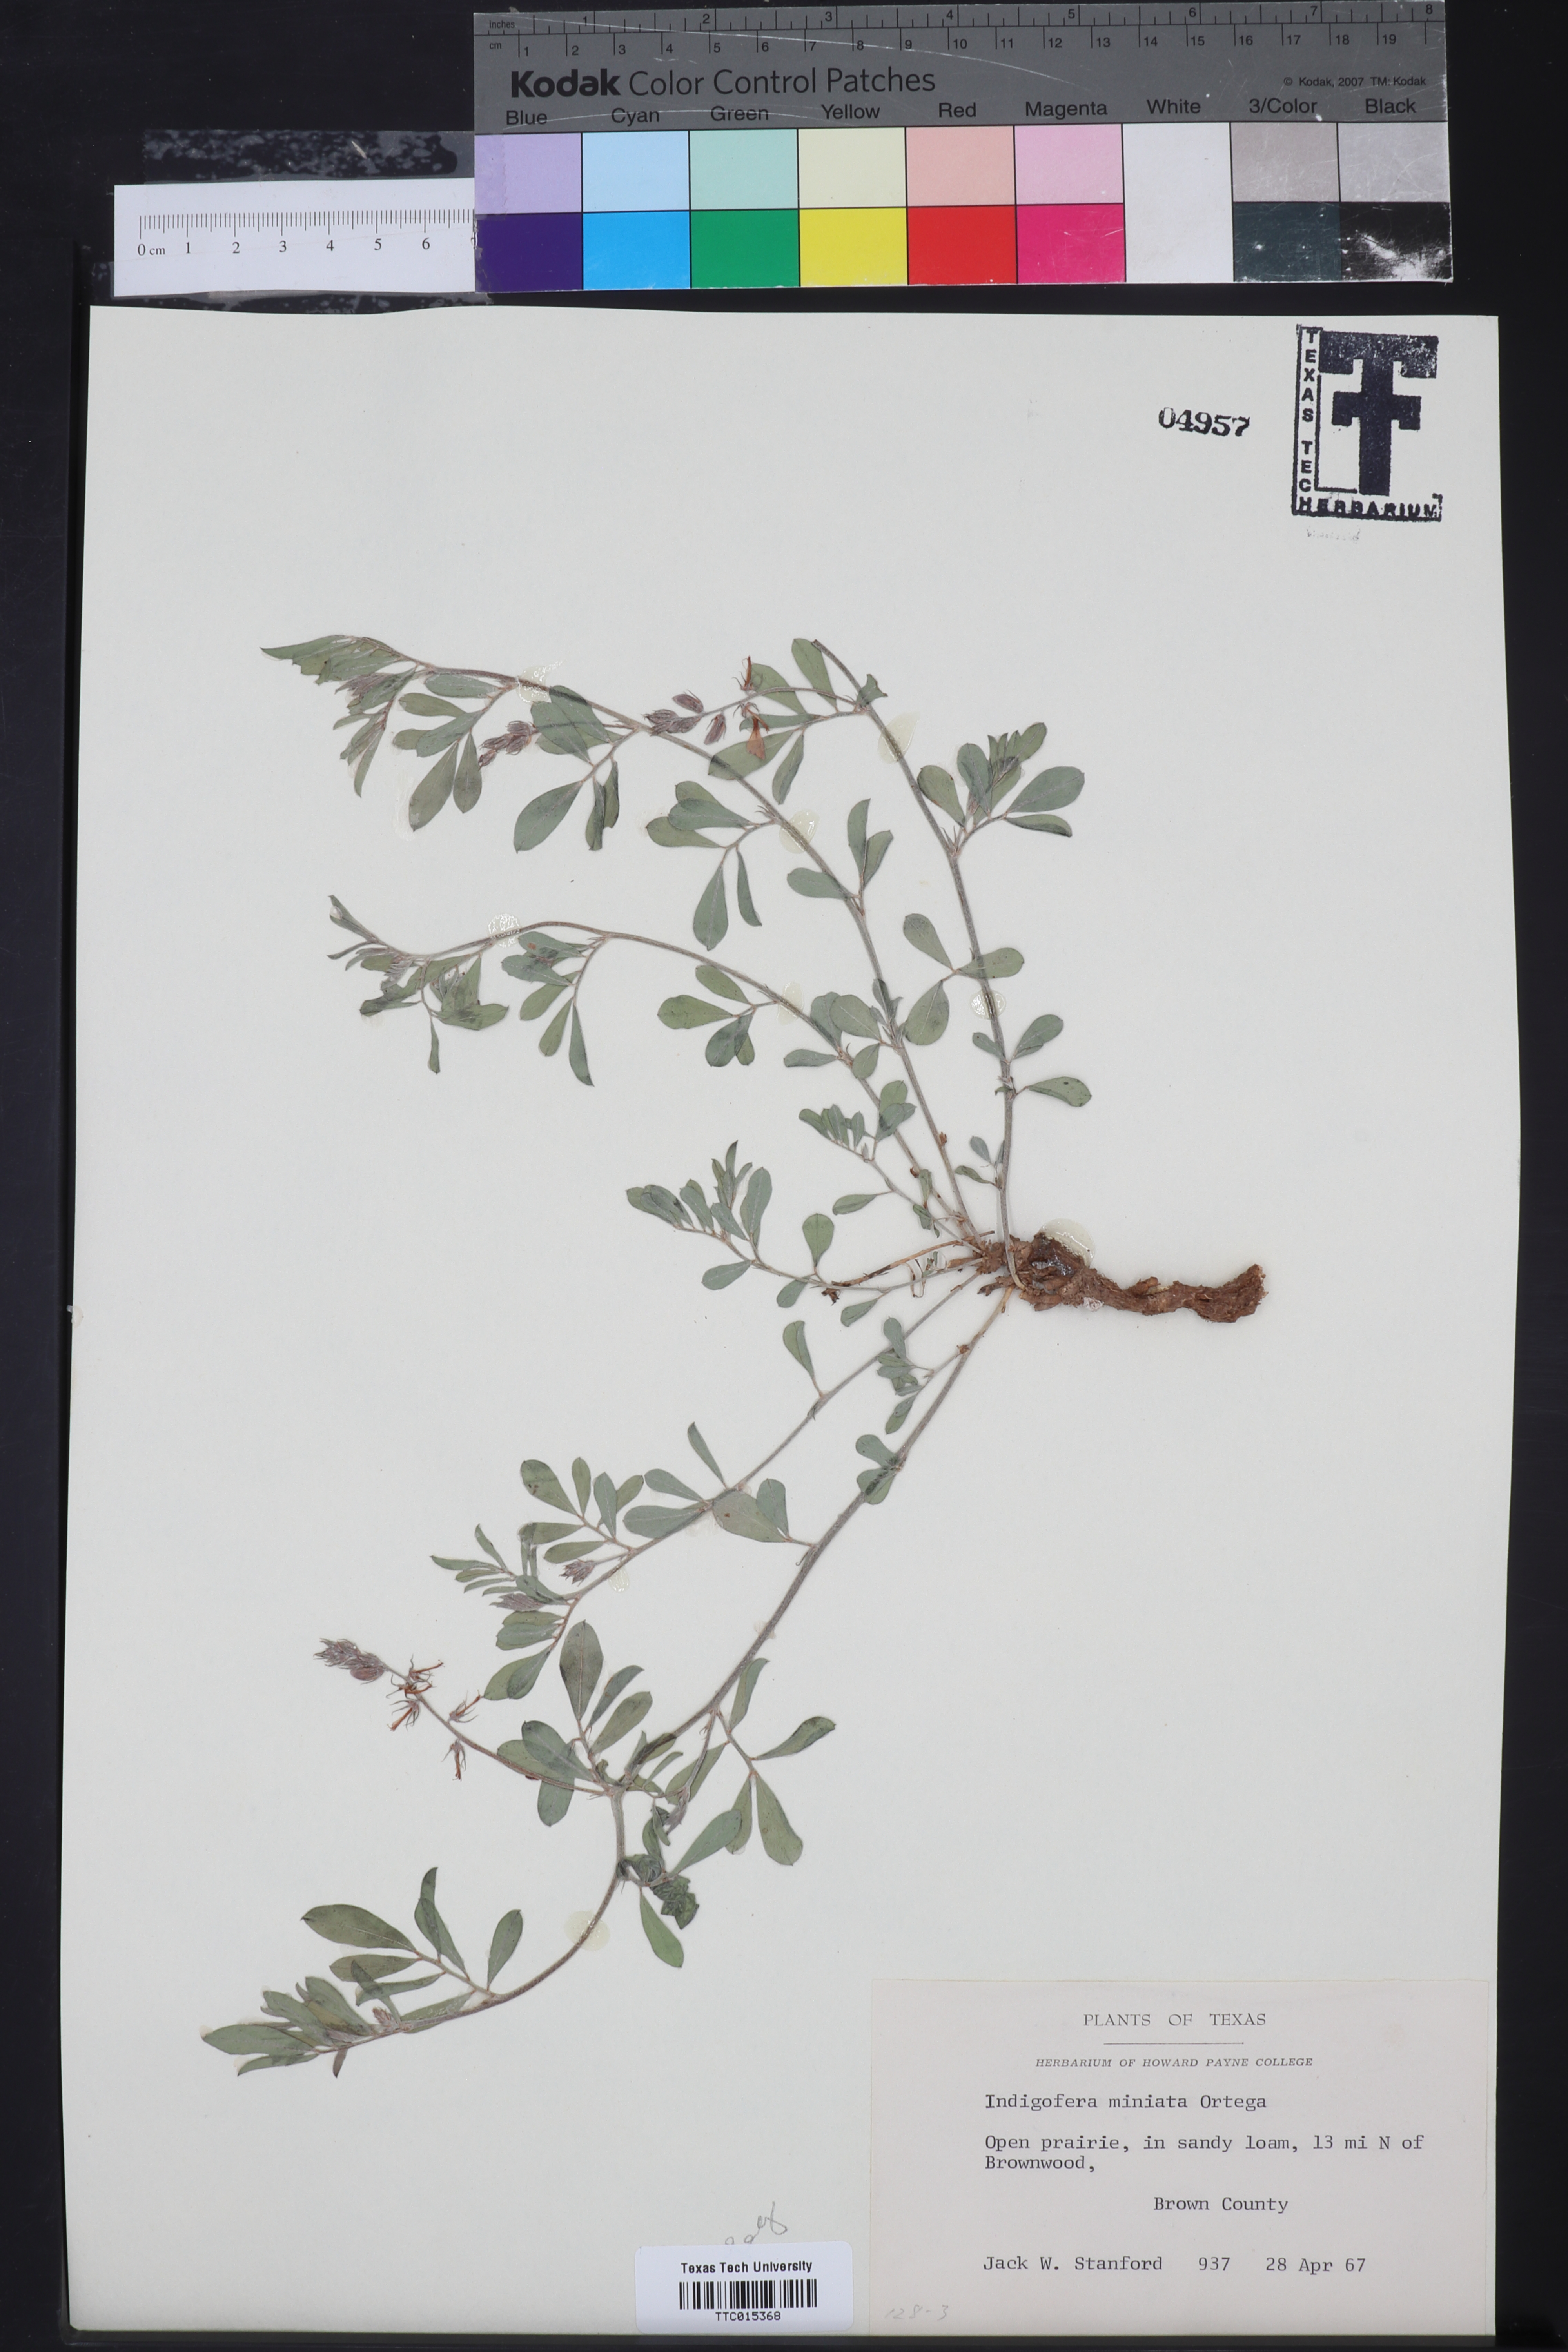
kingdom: Plantae
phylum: Tracheophyta
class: Magnoliopsida
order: Fabales
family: Fabaceae
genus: Indigofera
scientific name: Indigofera miniata
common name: Coast indigo
